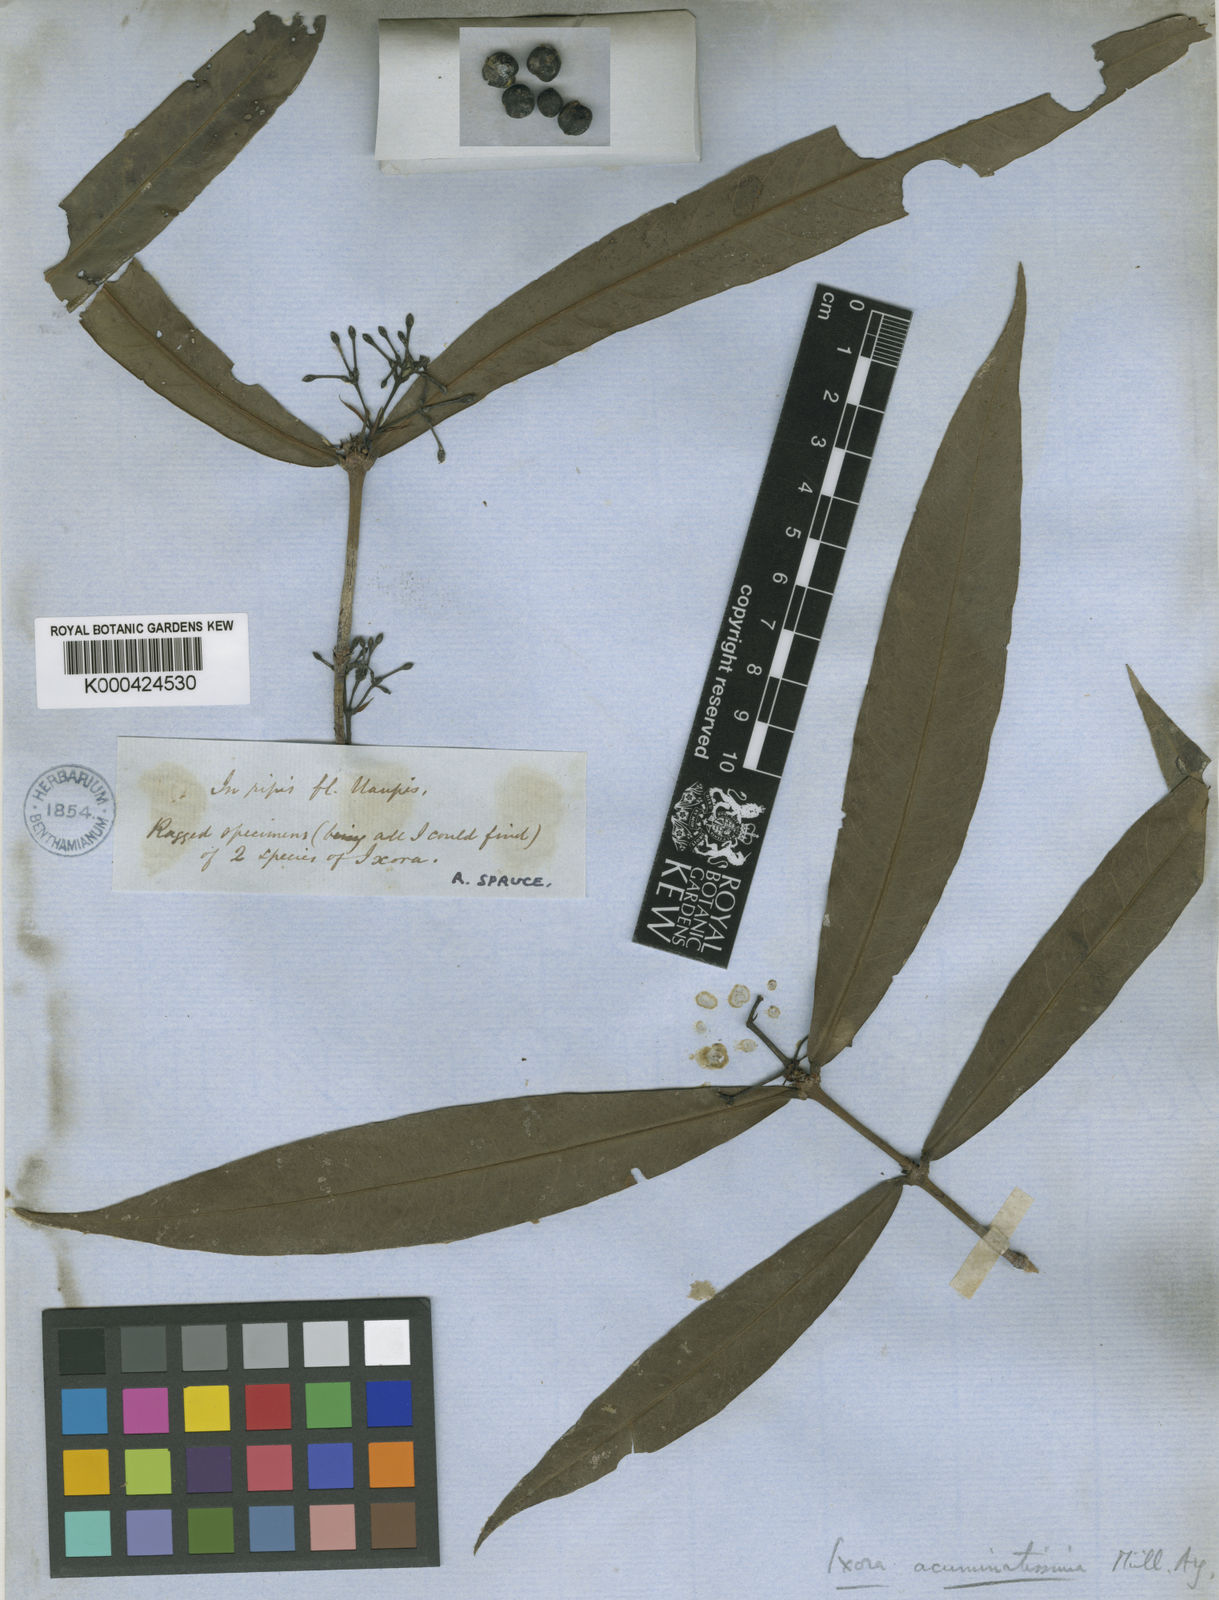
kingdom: Plantae
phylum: Tracheophyta
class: Magnoliopsida
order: Gentianales
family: Rubiaceae
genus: Ixora
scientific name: Ixora
